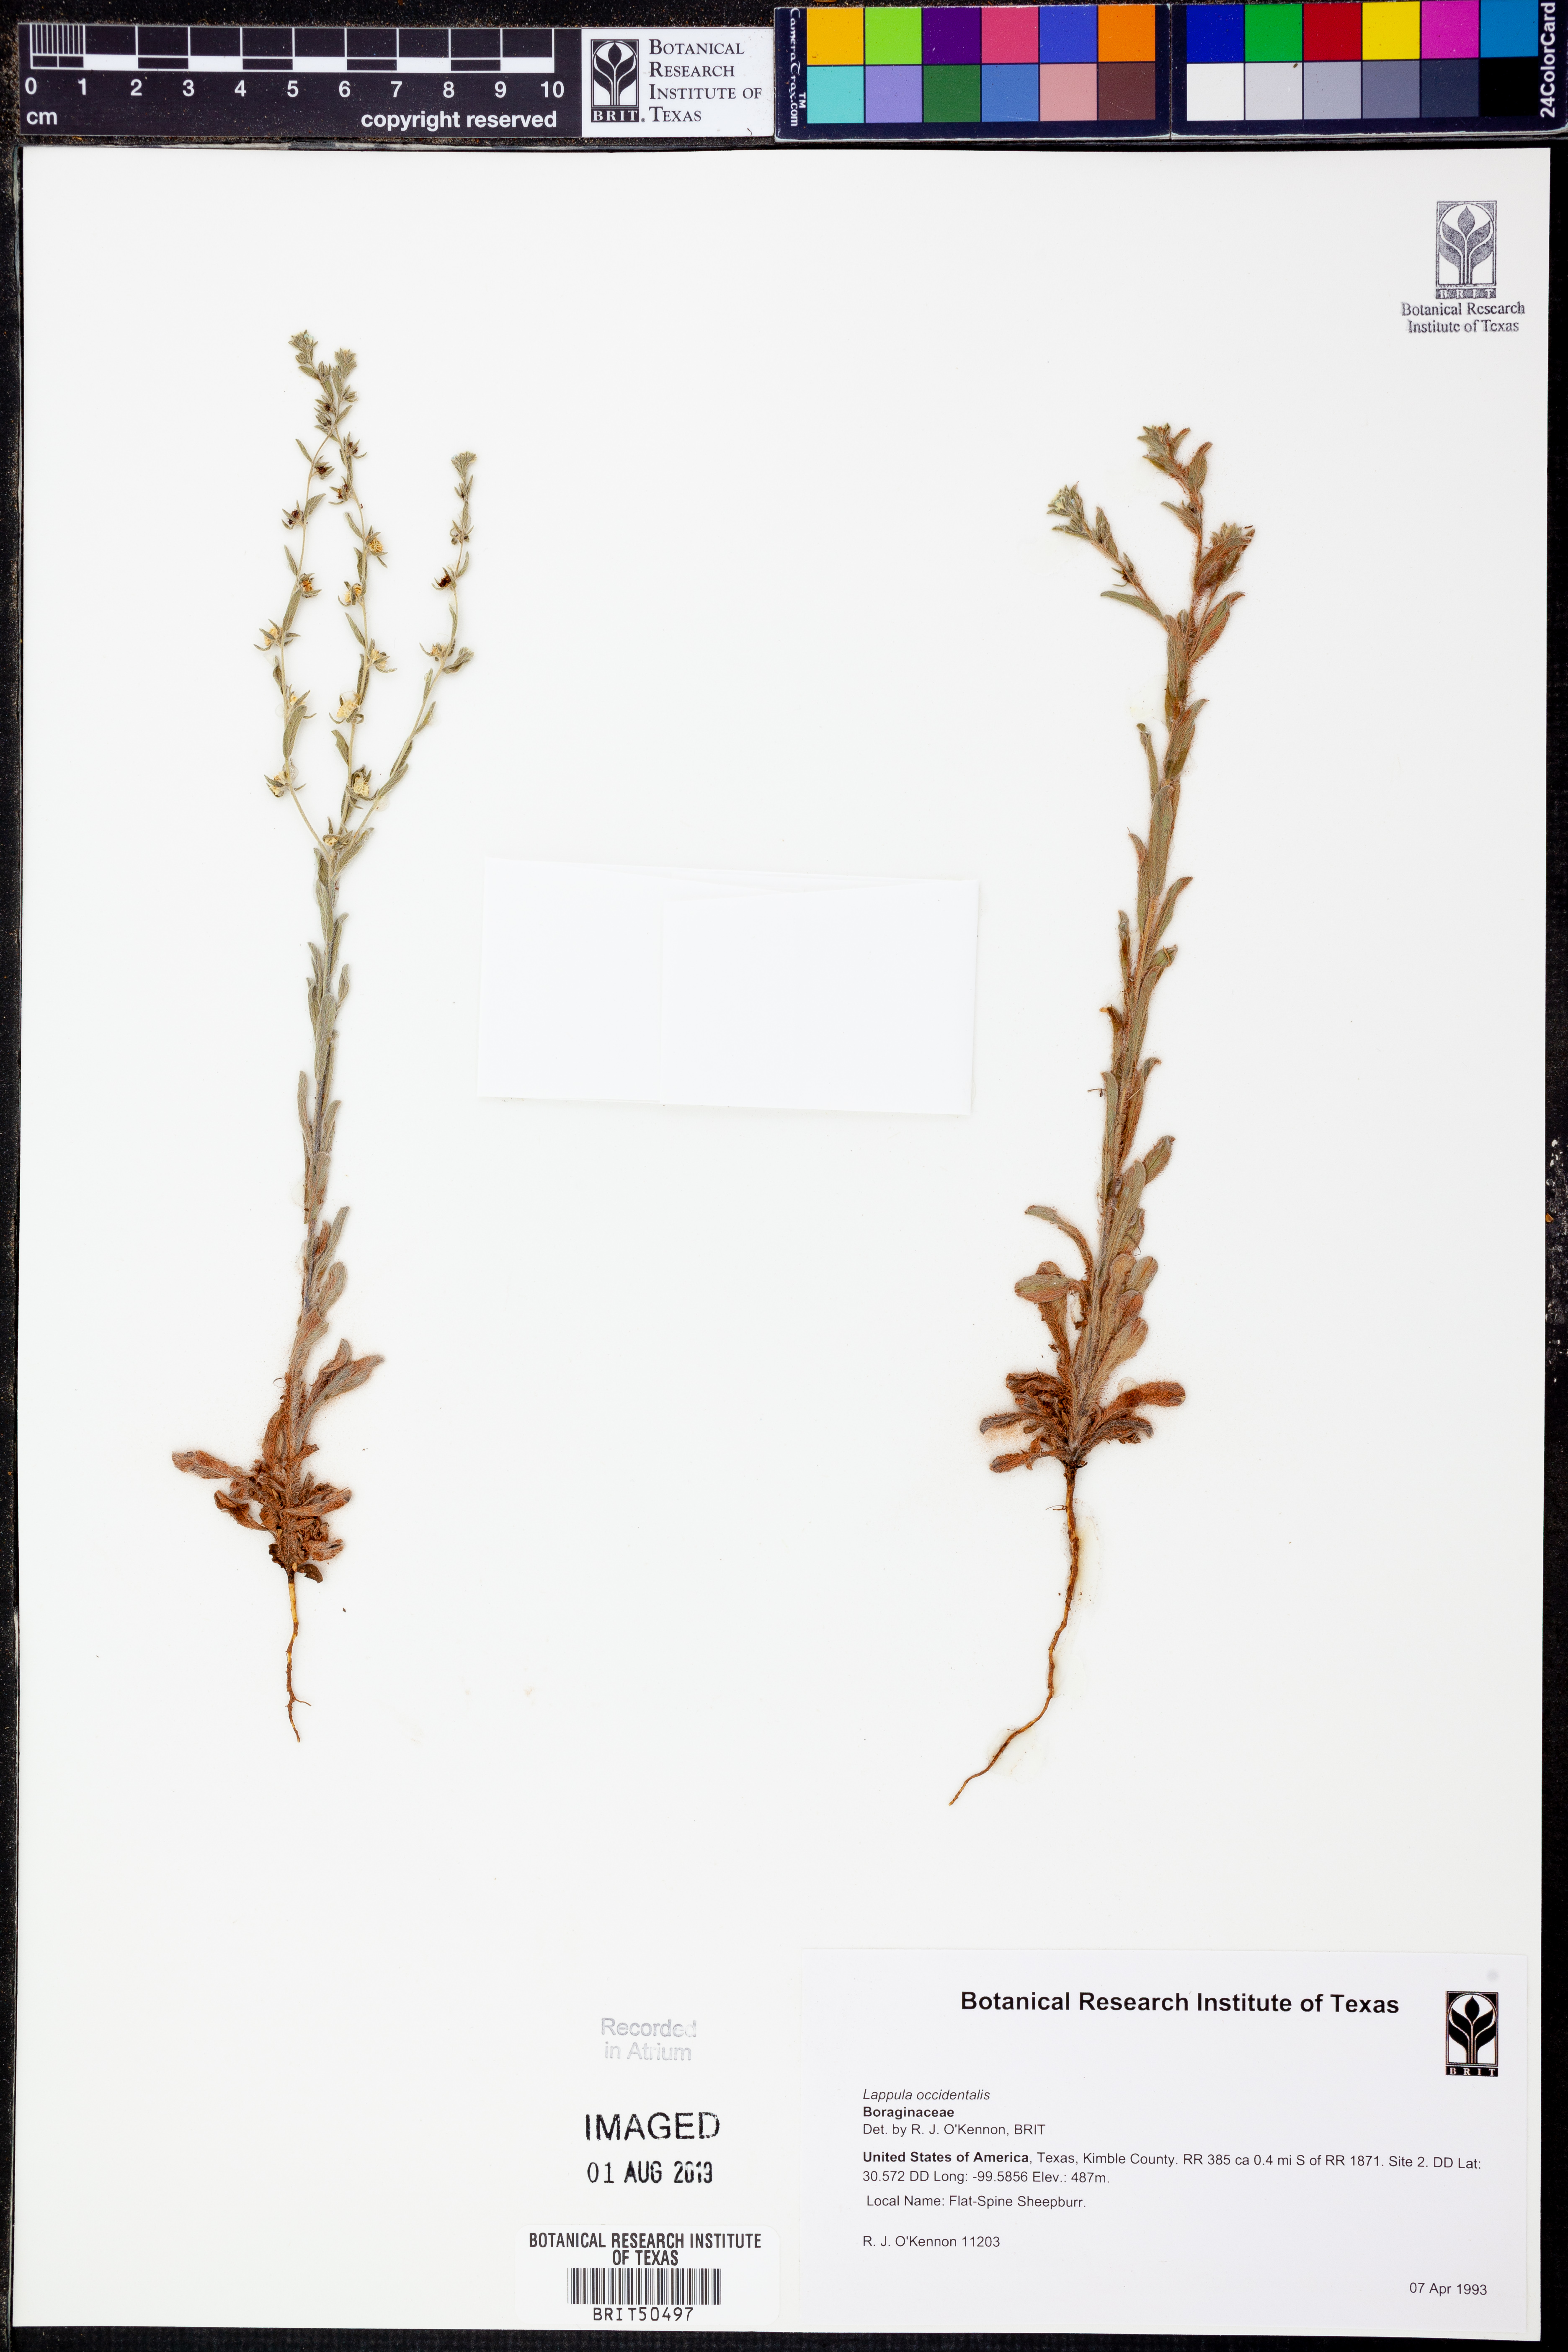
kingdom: Plantae
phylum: Tracheophyta
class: Magnoliopsida
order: Boraginales
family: Boraginaceae
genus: Lappula
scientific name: Lappula occidentalis
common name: Western stickseed
